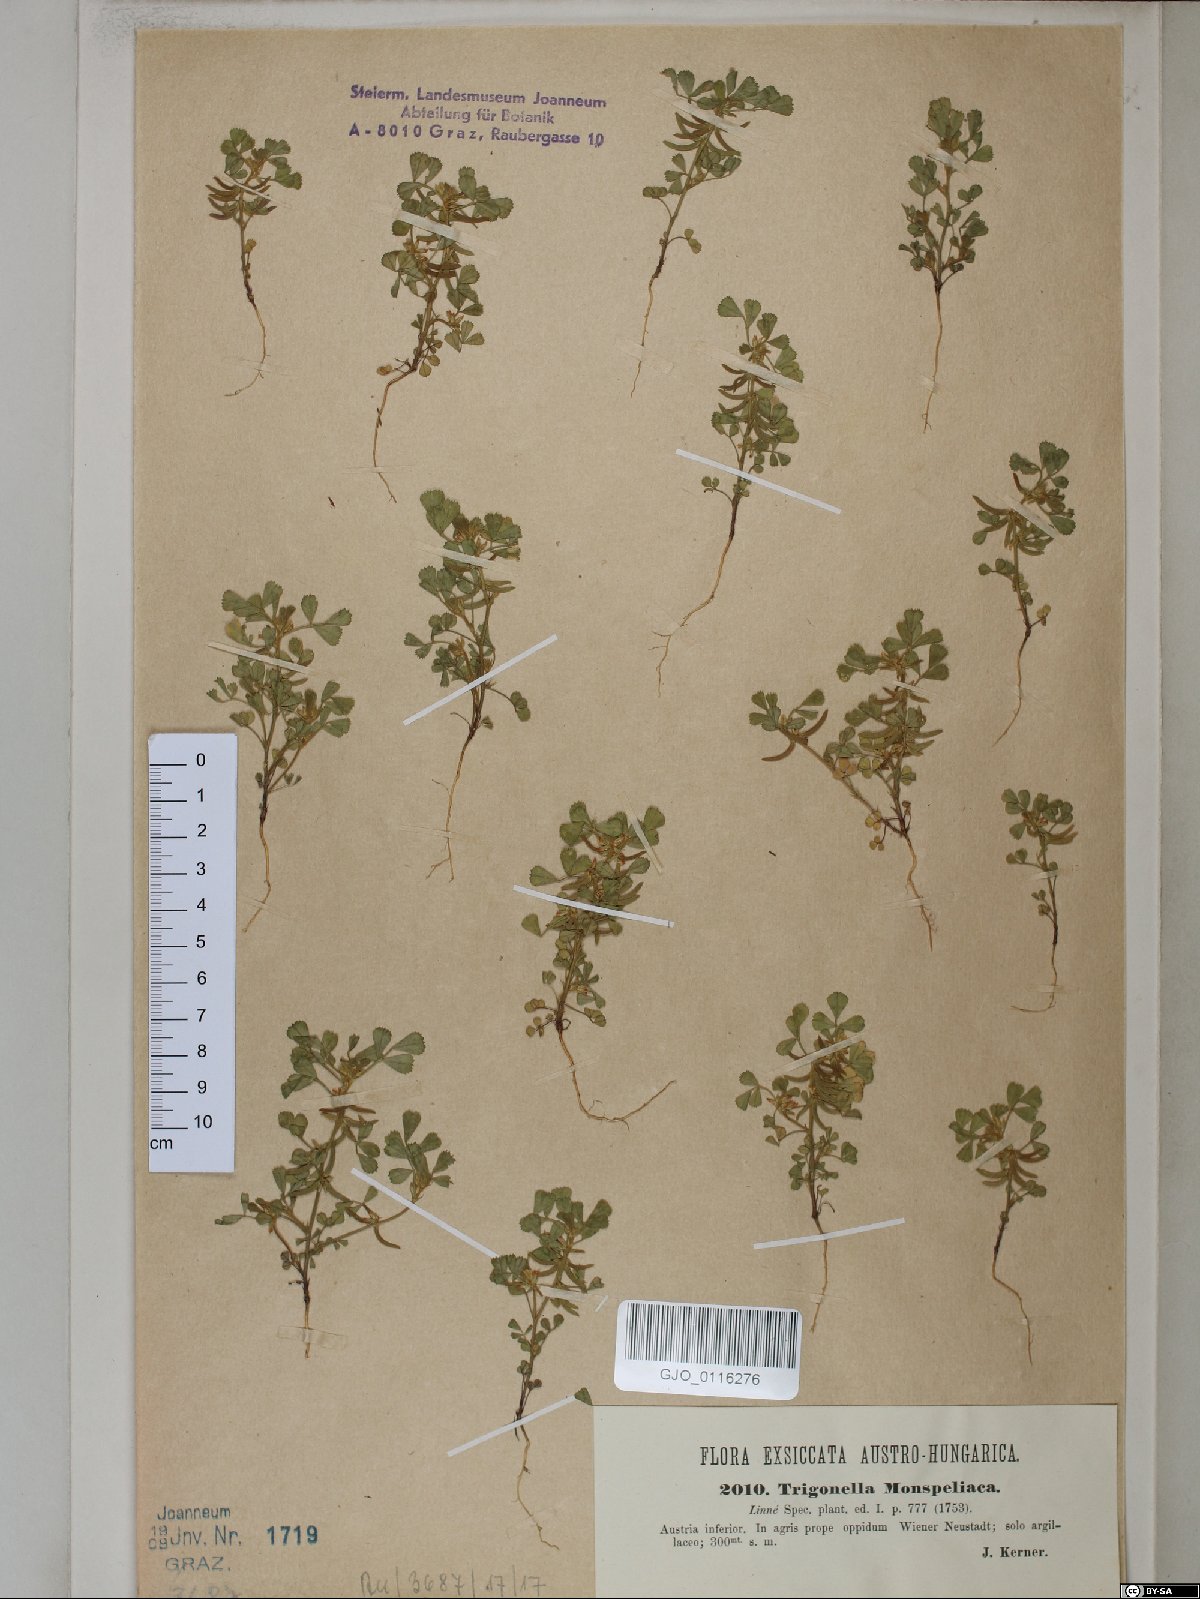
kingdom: Plantae
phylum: Tracheophyta
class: Magnoliopsida
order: Fabales
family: Fabaceae
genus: Medicago
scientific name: Medicago monspeliaca
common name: Hairy medick
